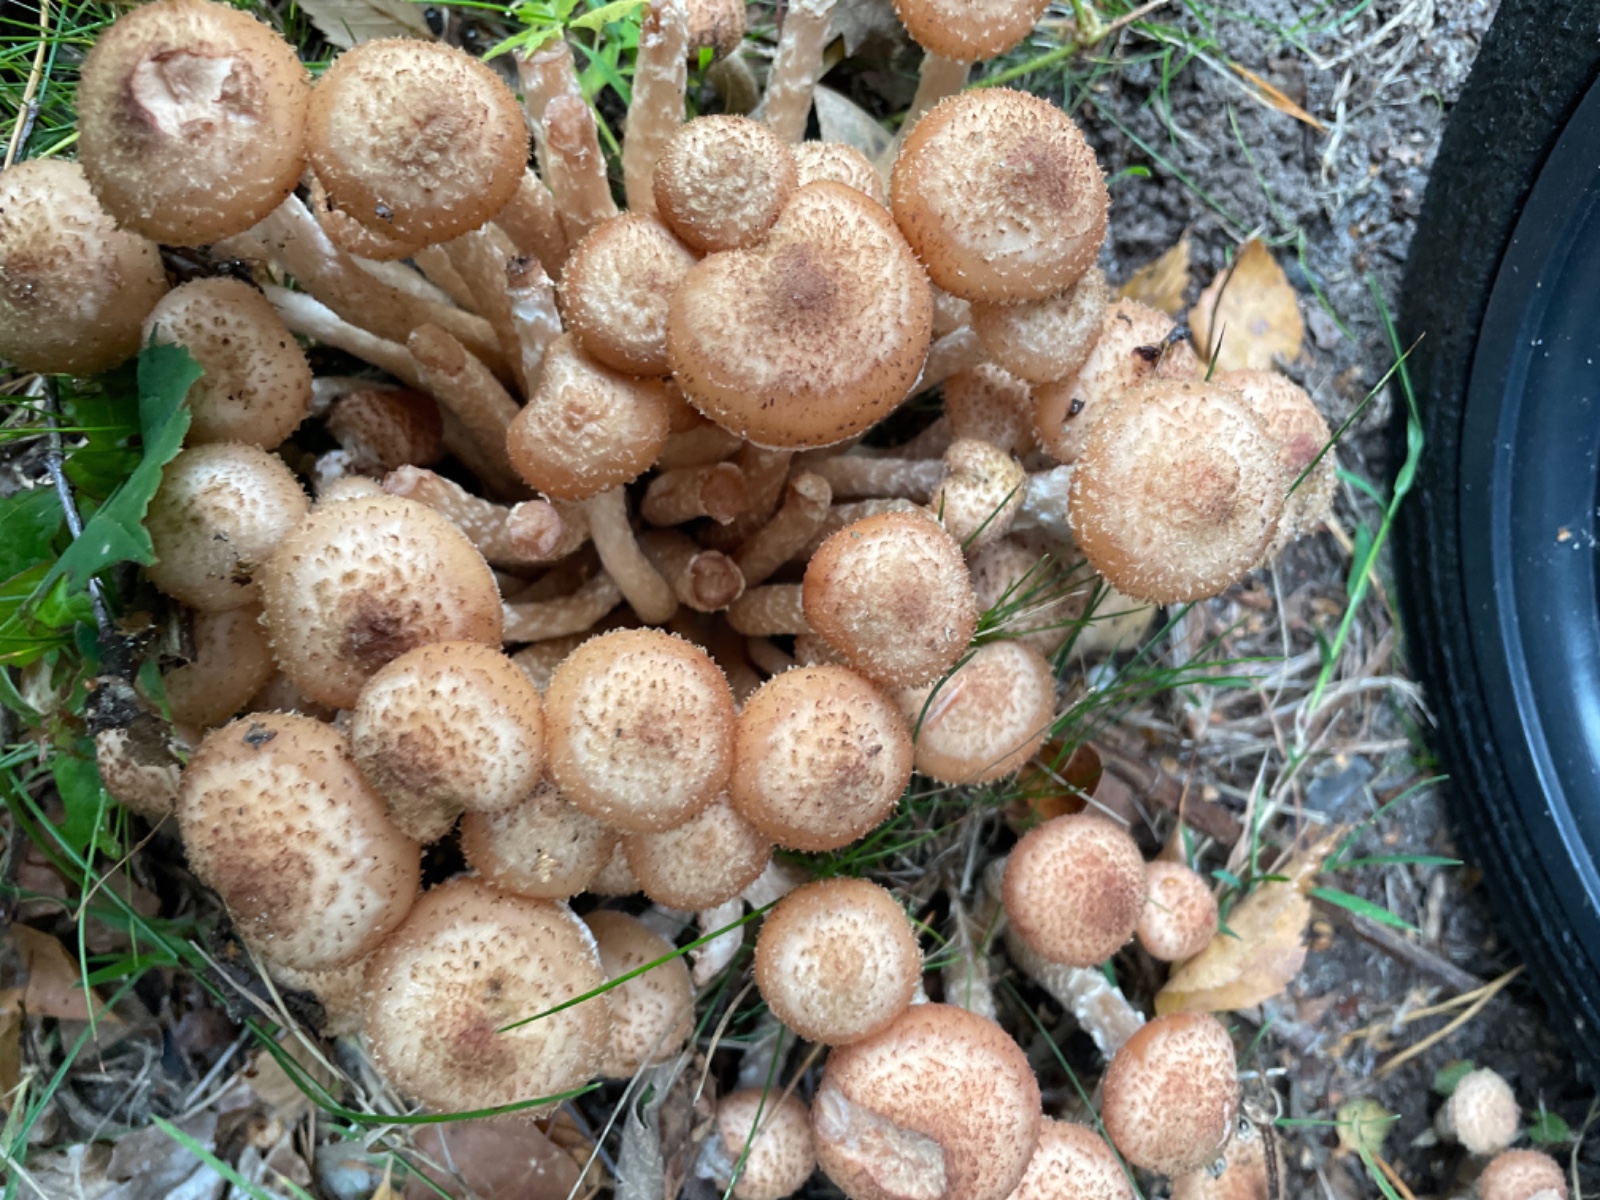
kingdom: Fungi
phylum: Basidiomycota
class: Agaricomycetes
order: Agaricales
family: Physalacriaceae
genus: Armillaria
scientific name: Armillaria
